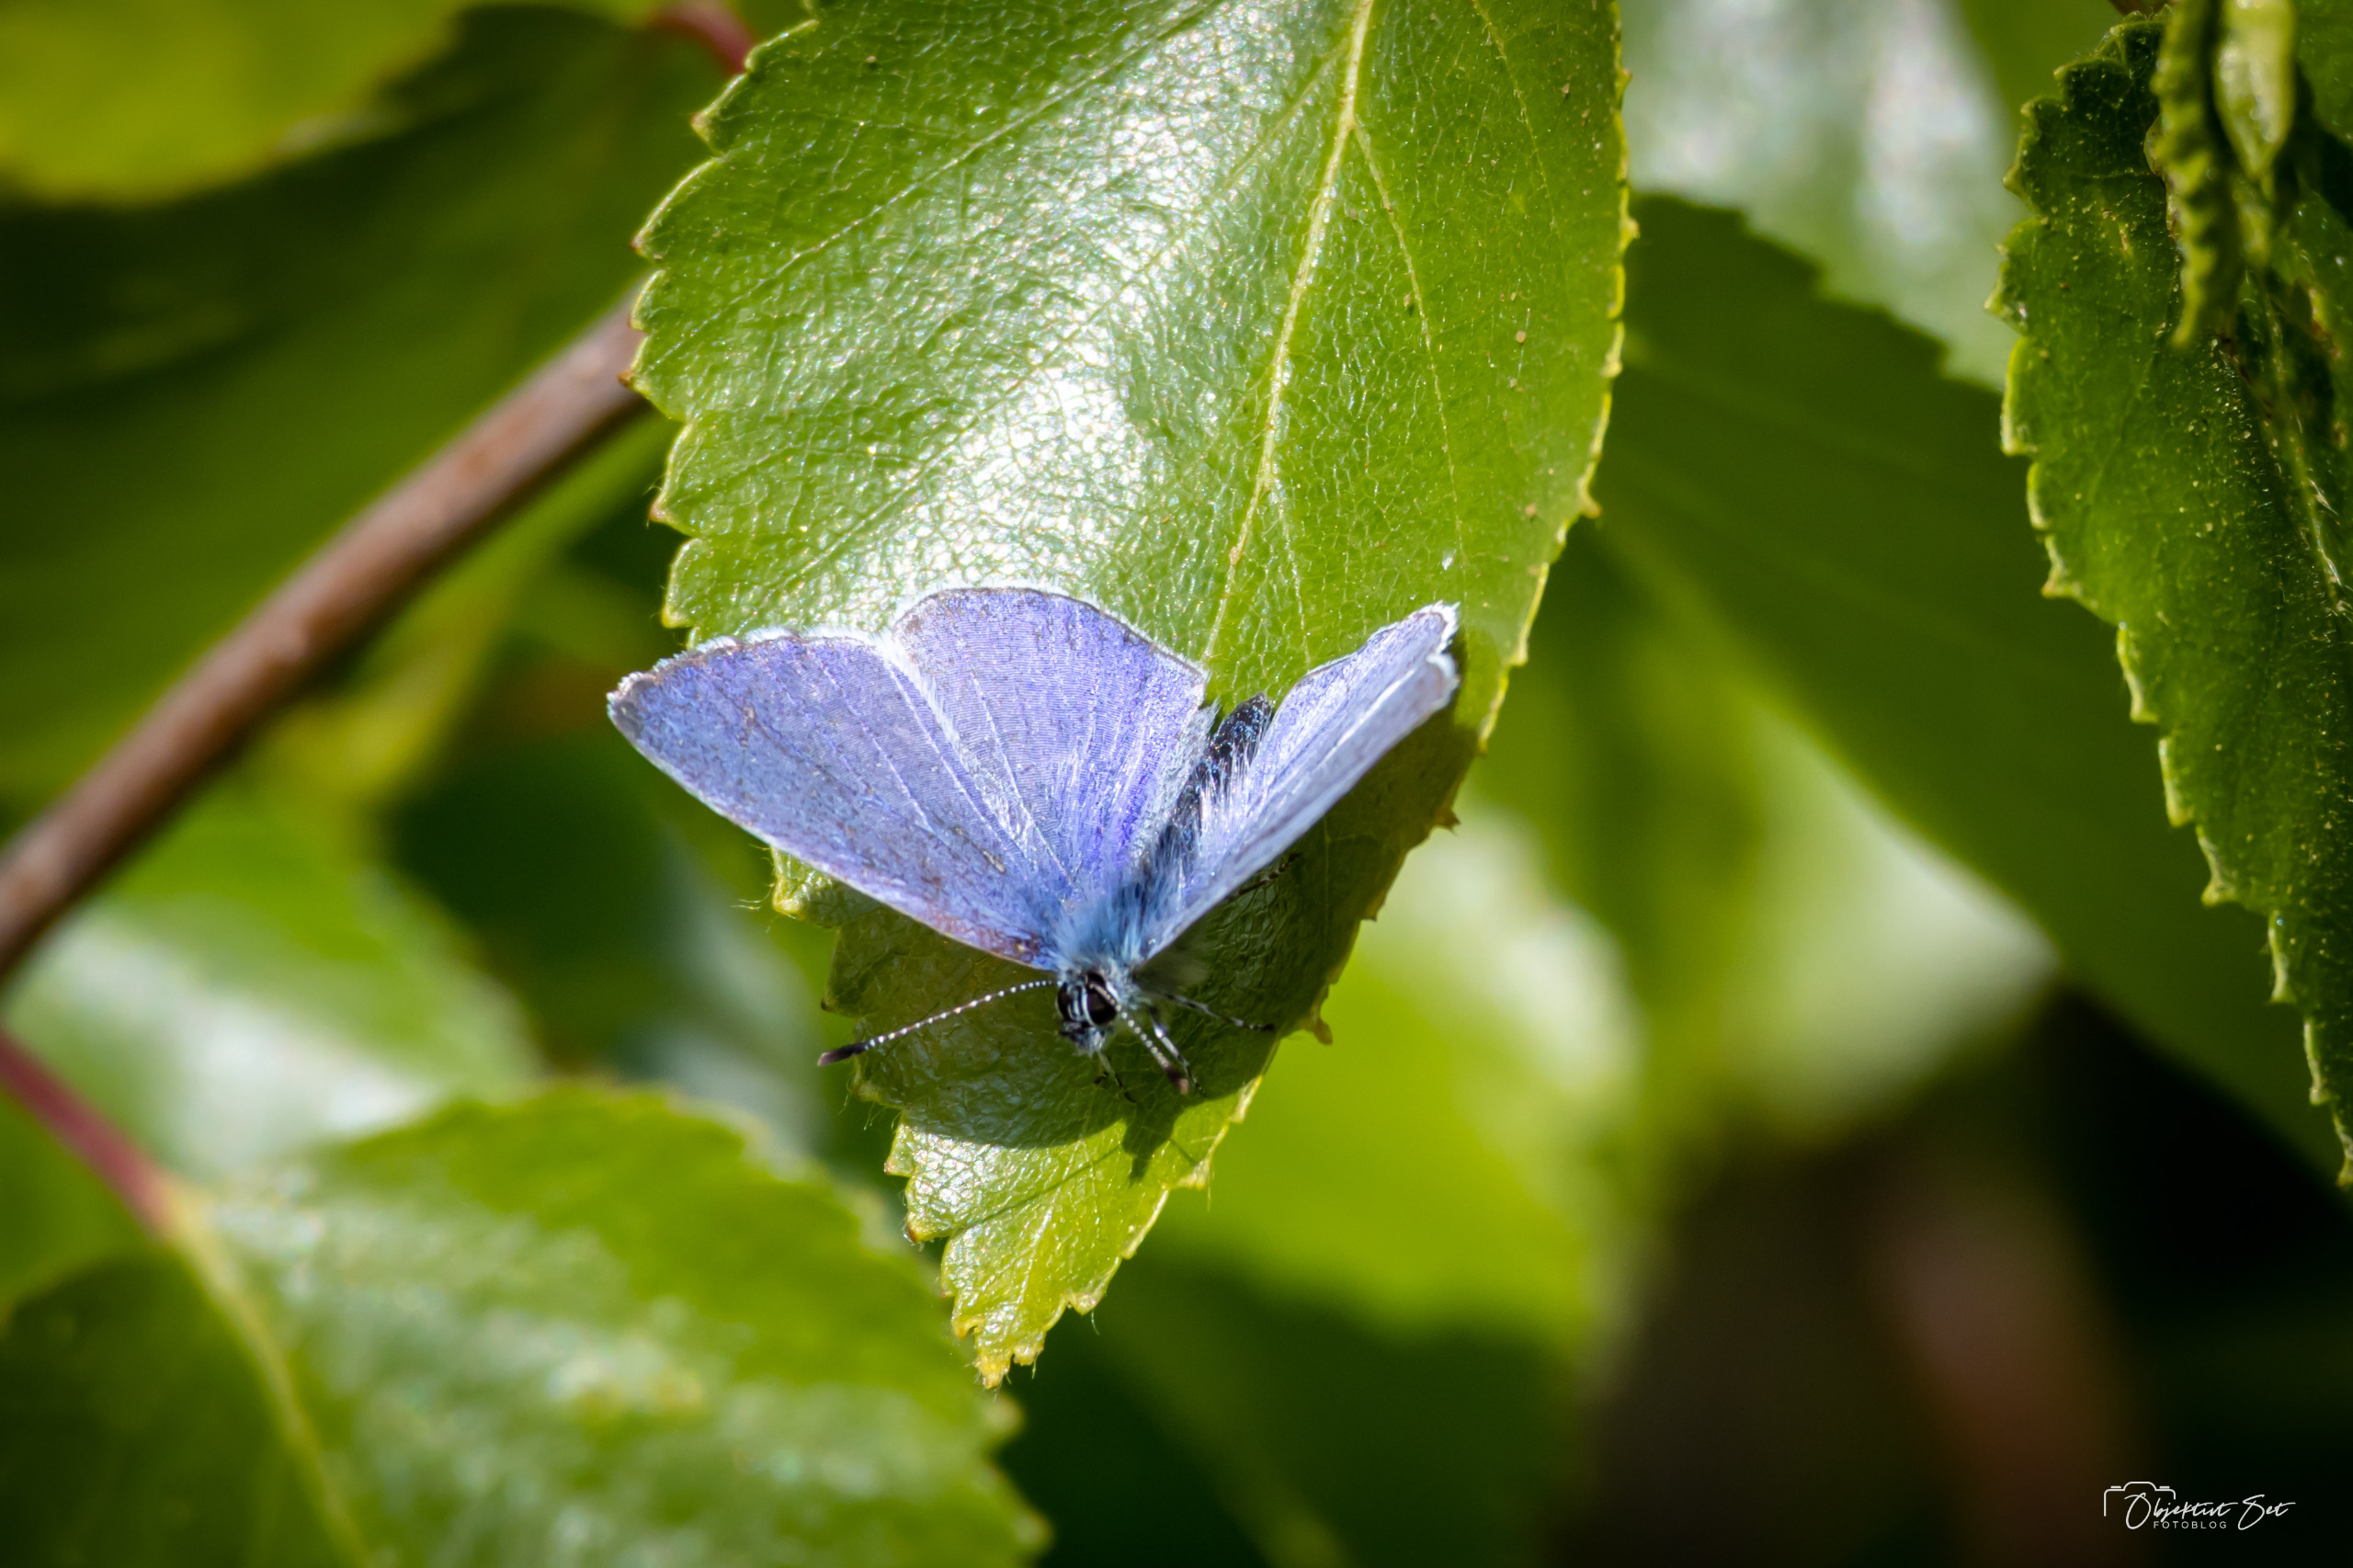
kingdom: Animalia
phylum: Arthropoda
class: Insecta
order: Lepidoptera
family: Lycaenidae
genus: Celastrina
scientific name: Celastrina argiolus
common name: Skovblåfugl
